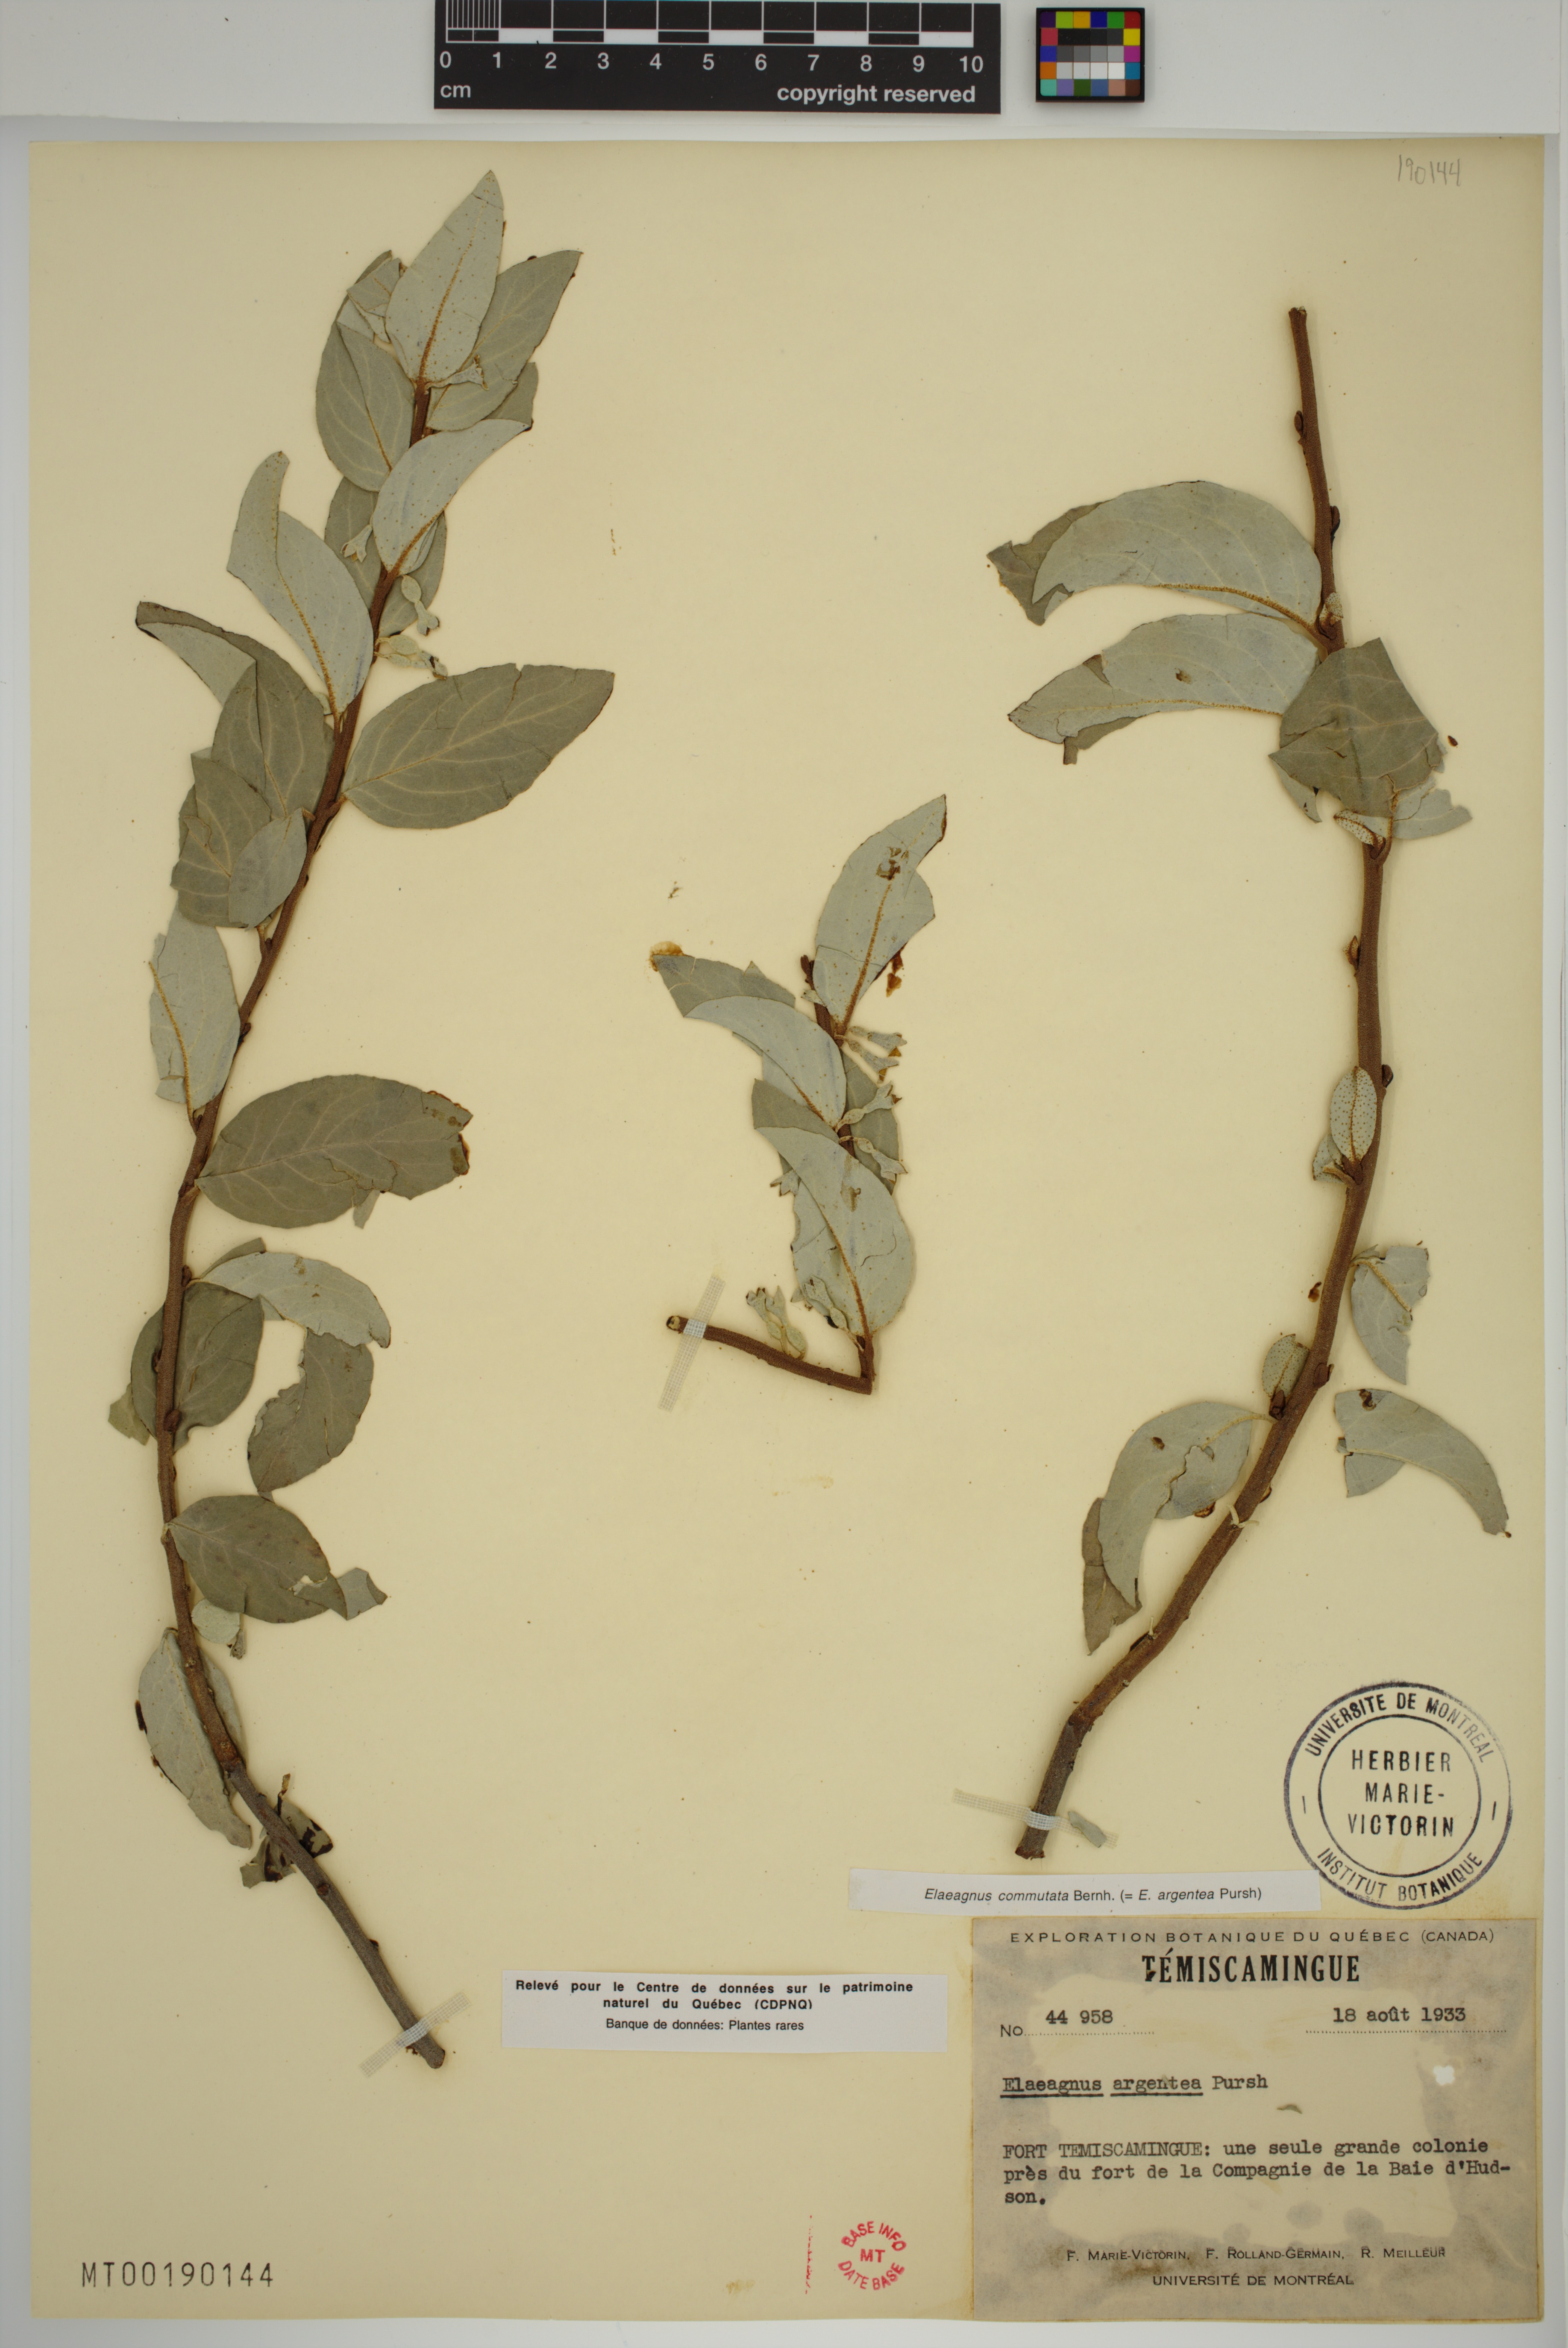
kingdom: Plantae
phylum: Tracheophyta
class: Magnoliopsida
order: Rosales
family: Elaeagnaceae
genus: Elaeagnus
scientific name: Elaeagnus commutata
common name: Silverberry
